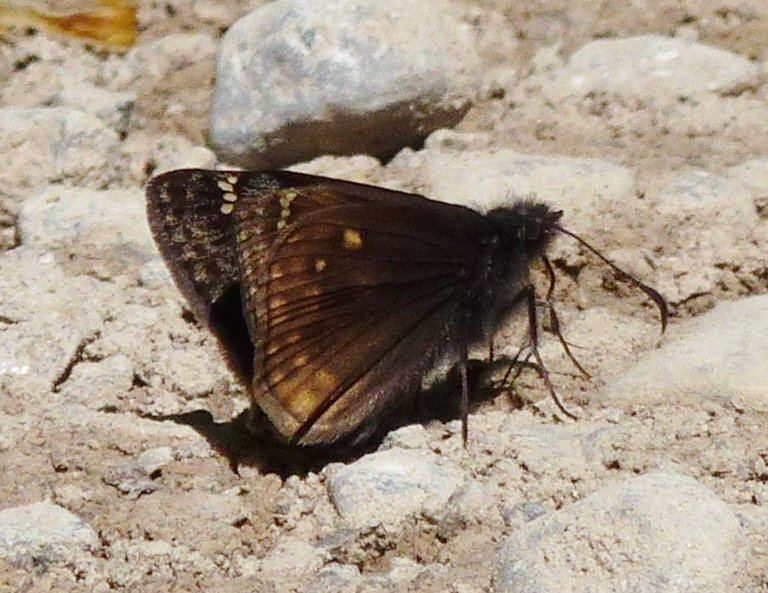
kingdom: Animalia
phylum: Arthropoda
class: Insecta
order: Lepidoptera
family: Hesperiidae
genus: Gesta
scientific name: Gesta
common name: Juvenal's Duskywing
